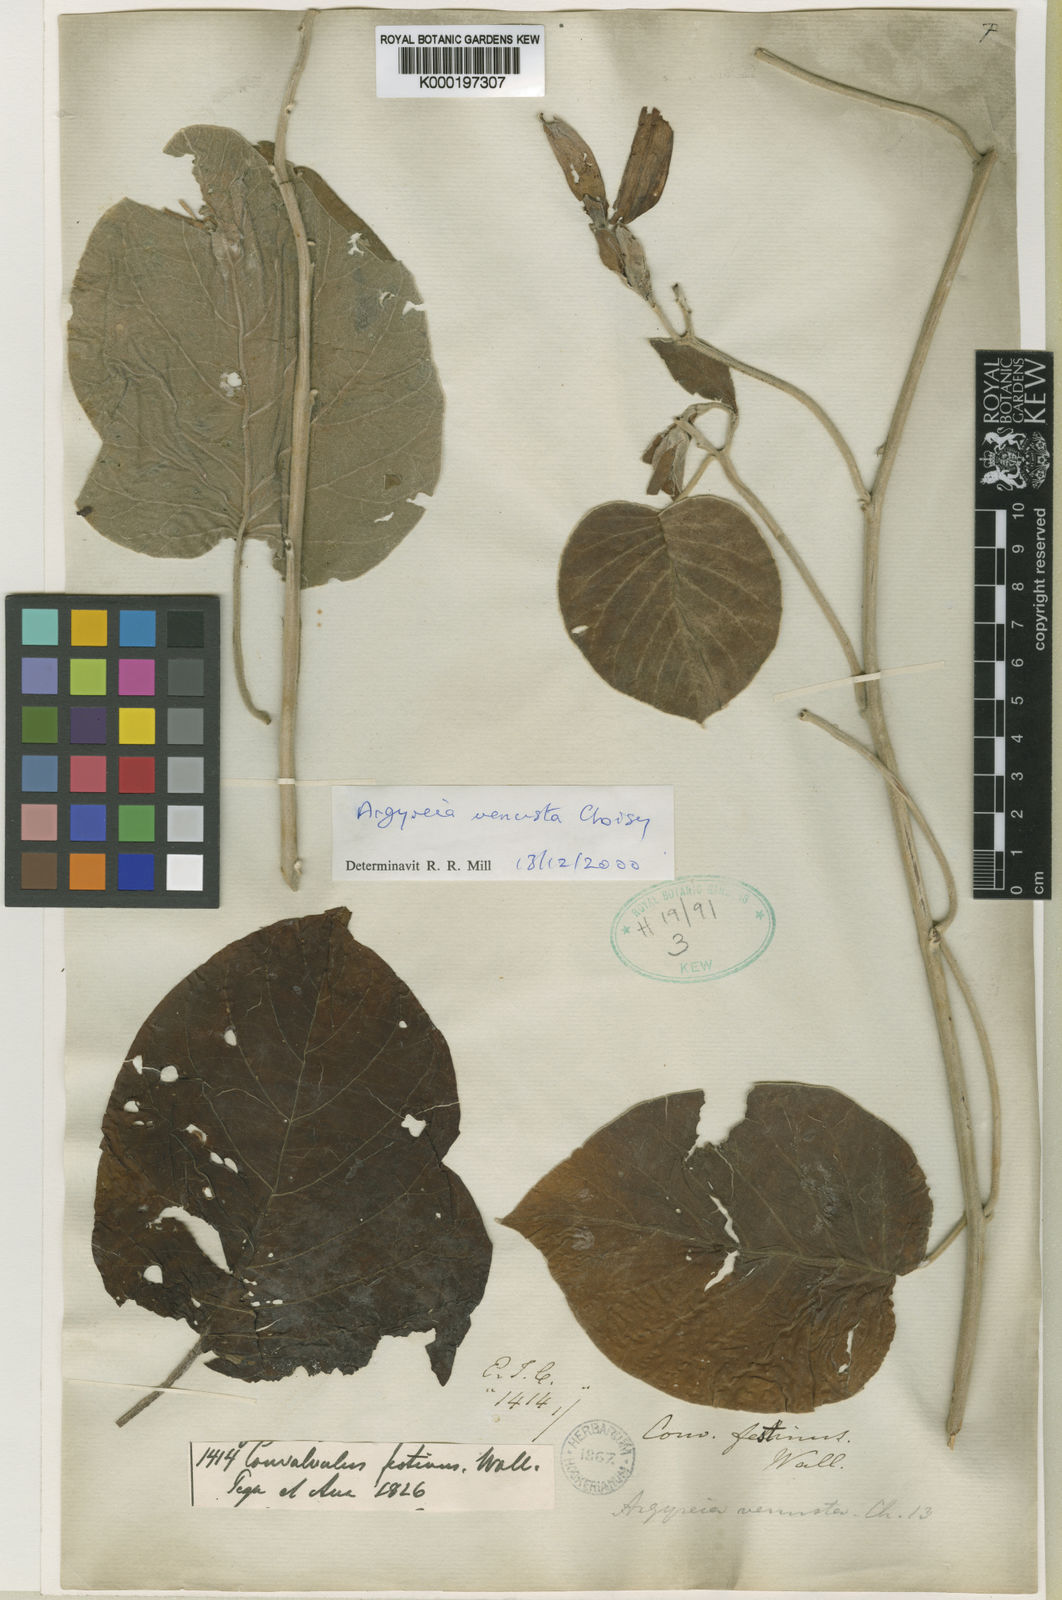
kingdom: Plantae
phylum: Tracheophyta
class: Magnoliopsida
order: Solanales
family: Convolvulaceae
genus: Argyreia
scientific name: Argyreia
